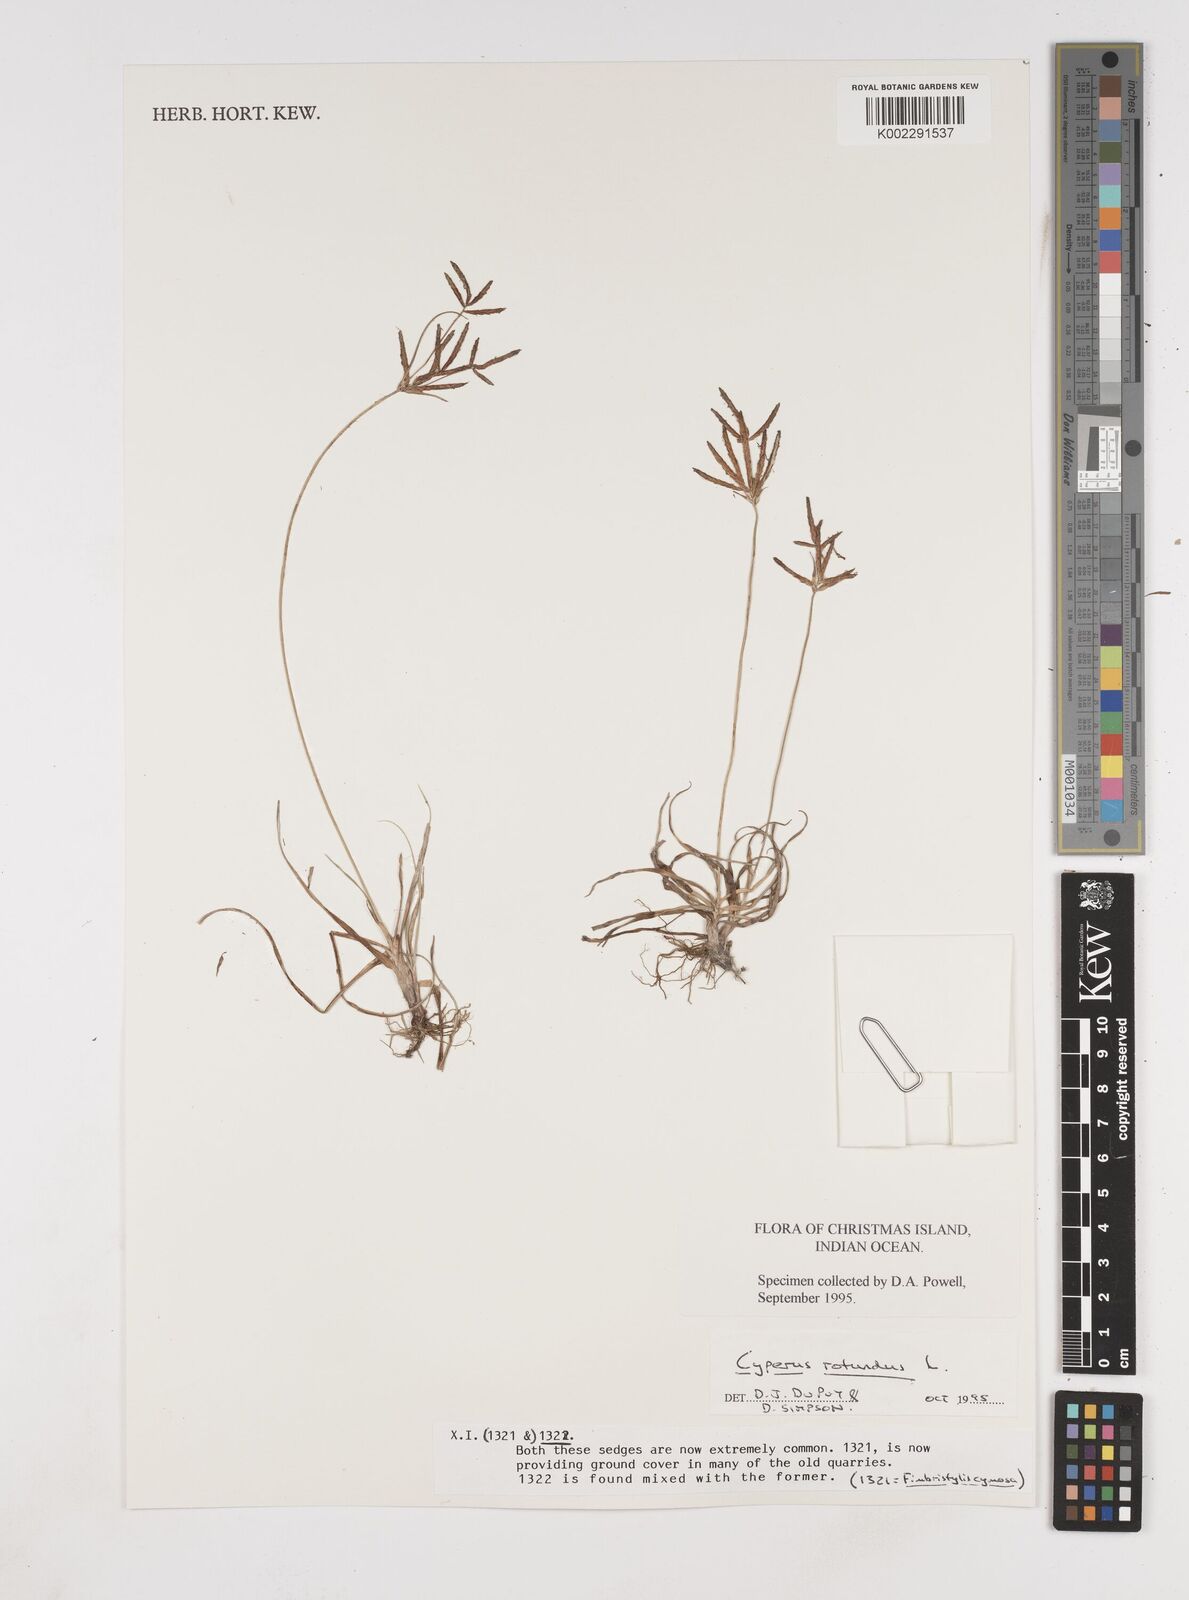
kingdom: Plantae
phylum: Tracheophyta
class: Liliopsida
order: Poales
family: Cyperaceae
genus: Cyperus
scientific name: Cyperus rotundus
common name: Nutgrass
